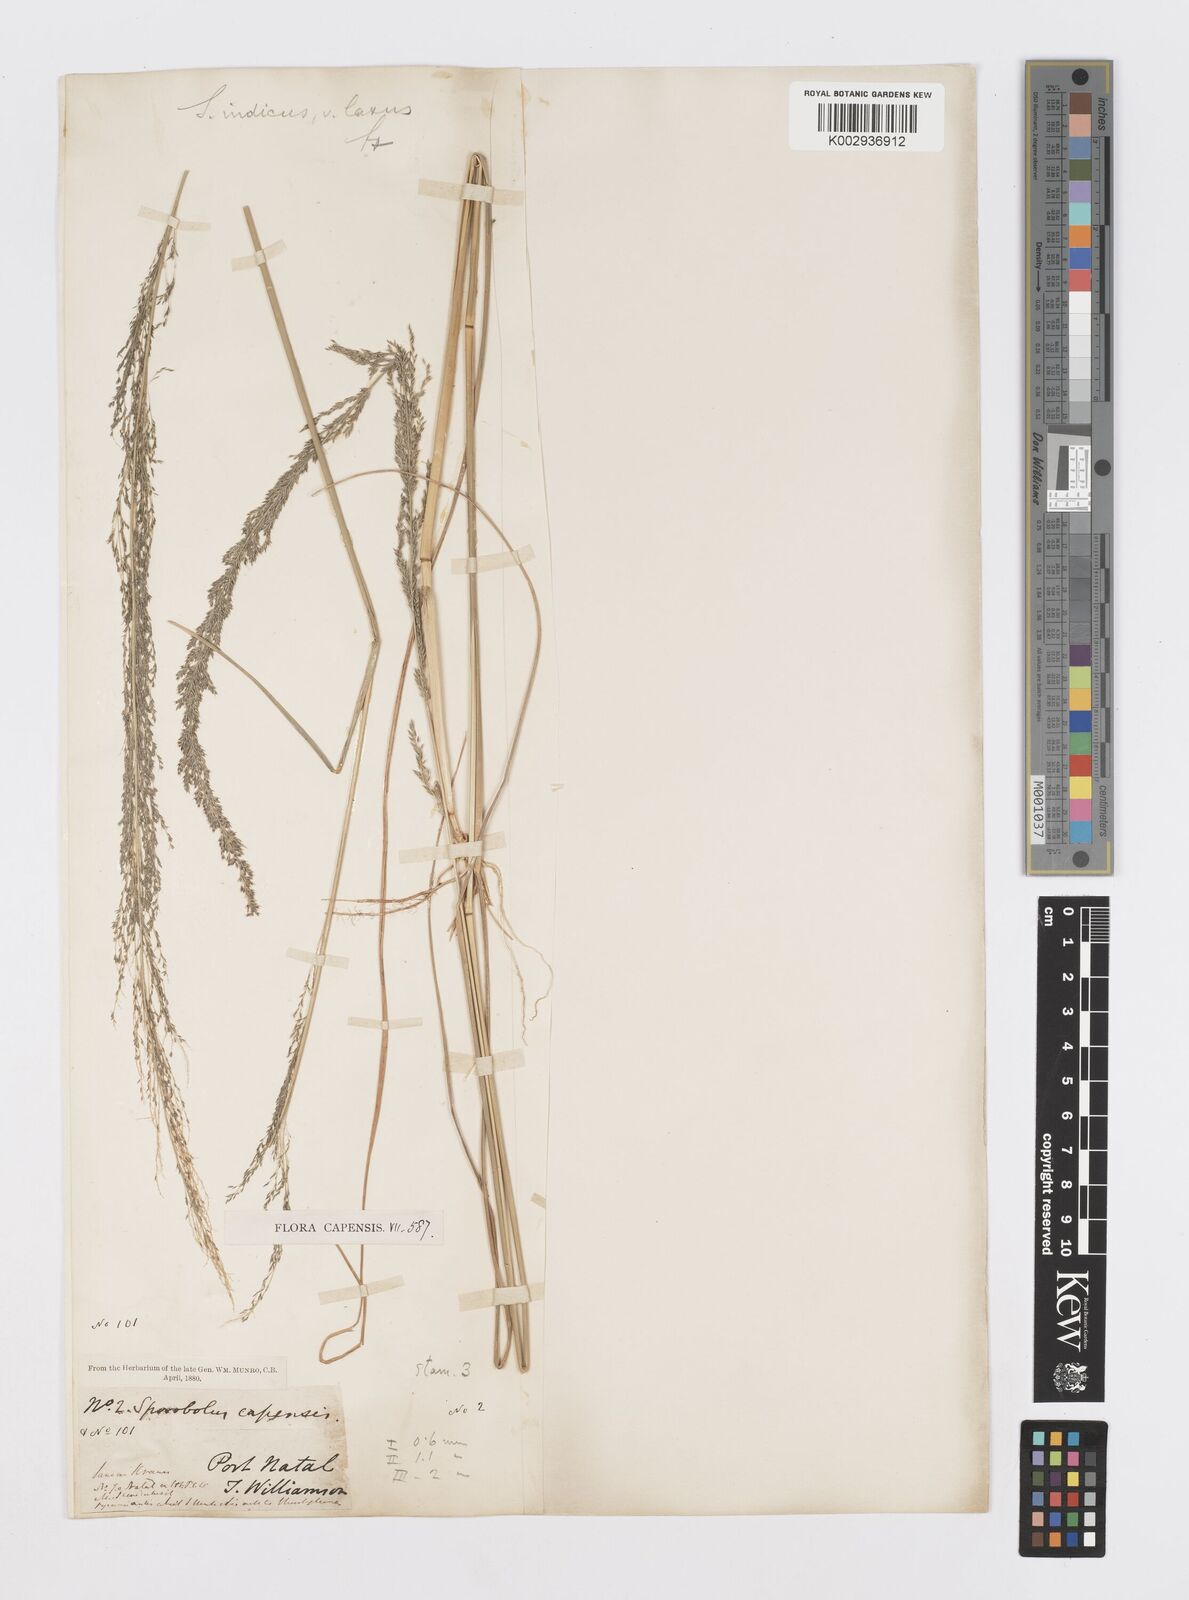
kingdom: Plantae
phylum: Tracheophyta
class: Liliopsida
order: Poales
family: Poaceae
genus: Sporobolus
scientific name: Sporobolus natalensis
